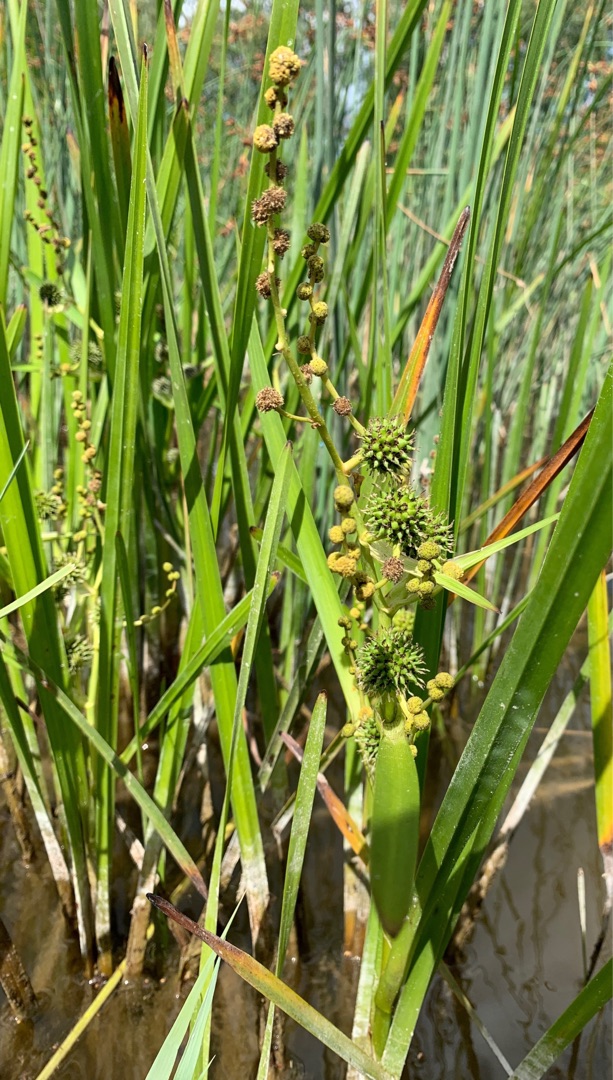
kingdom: Plantae
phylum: Tracheophyta
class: Liliopsida
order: Poales
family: Typhaceae
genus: Sparganium
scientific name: Sparganium erectum
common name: Sodfarvet pindsvineknop
